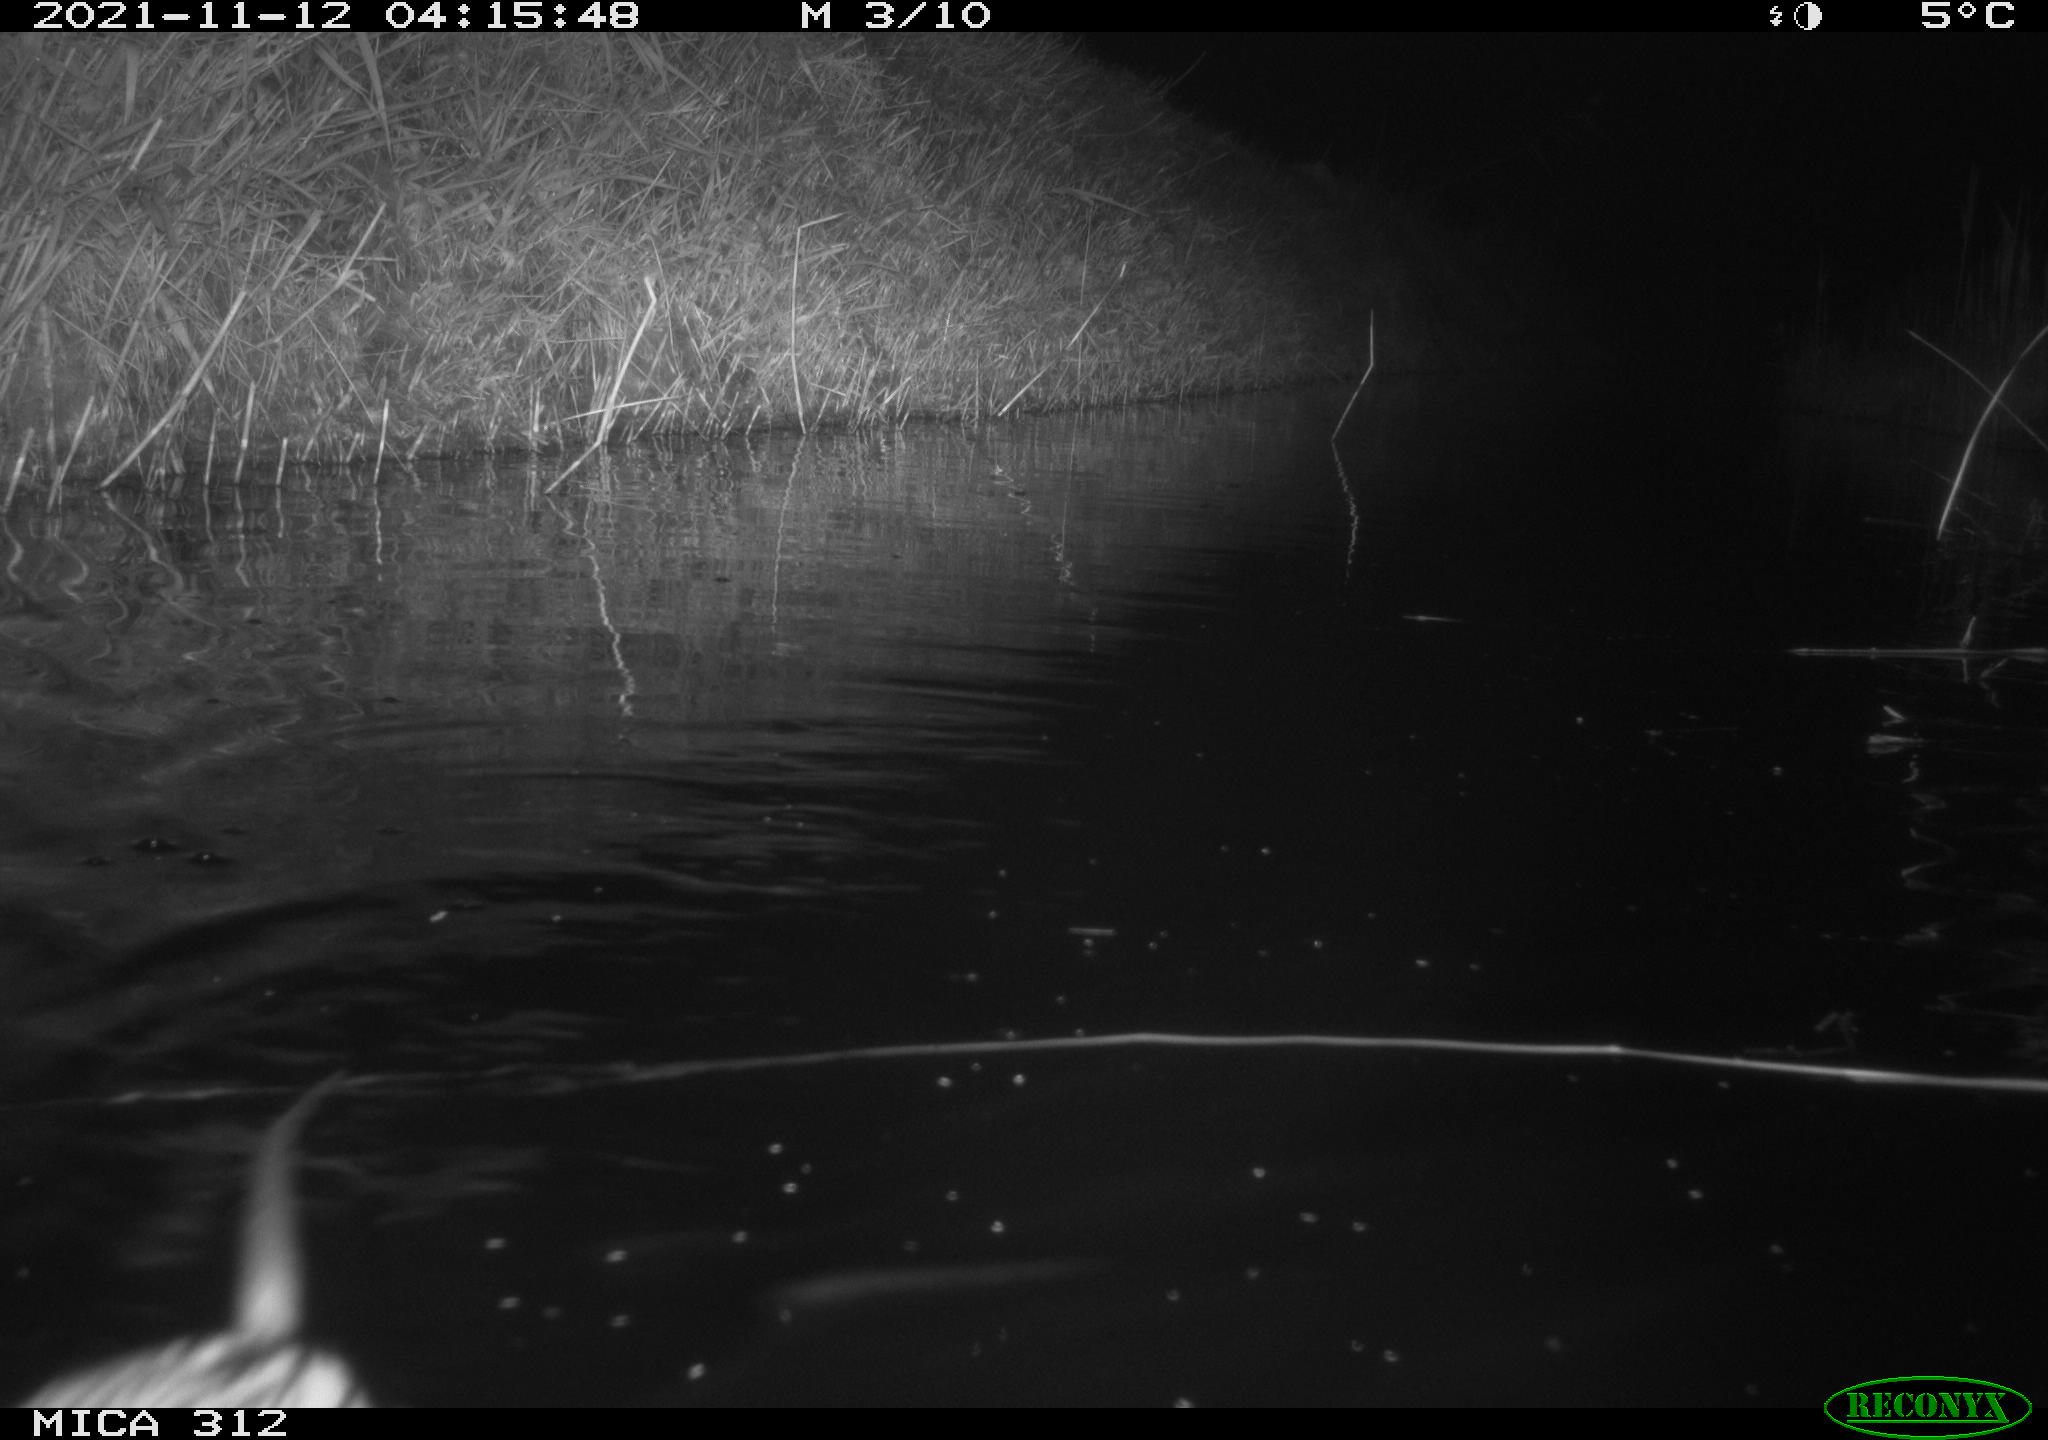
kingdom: Animalia
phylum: Chordata
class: Mammalia
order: Rodentia
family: Cricetidae
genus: Ondatra
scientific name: Ondatra zibethicus
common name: Muskrat
